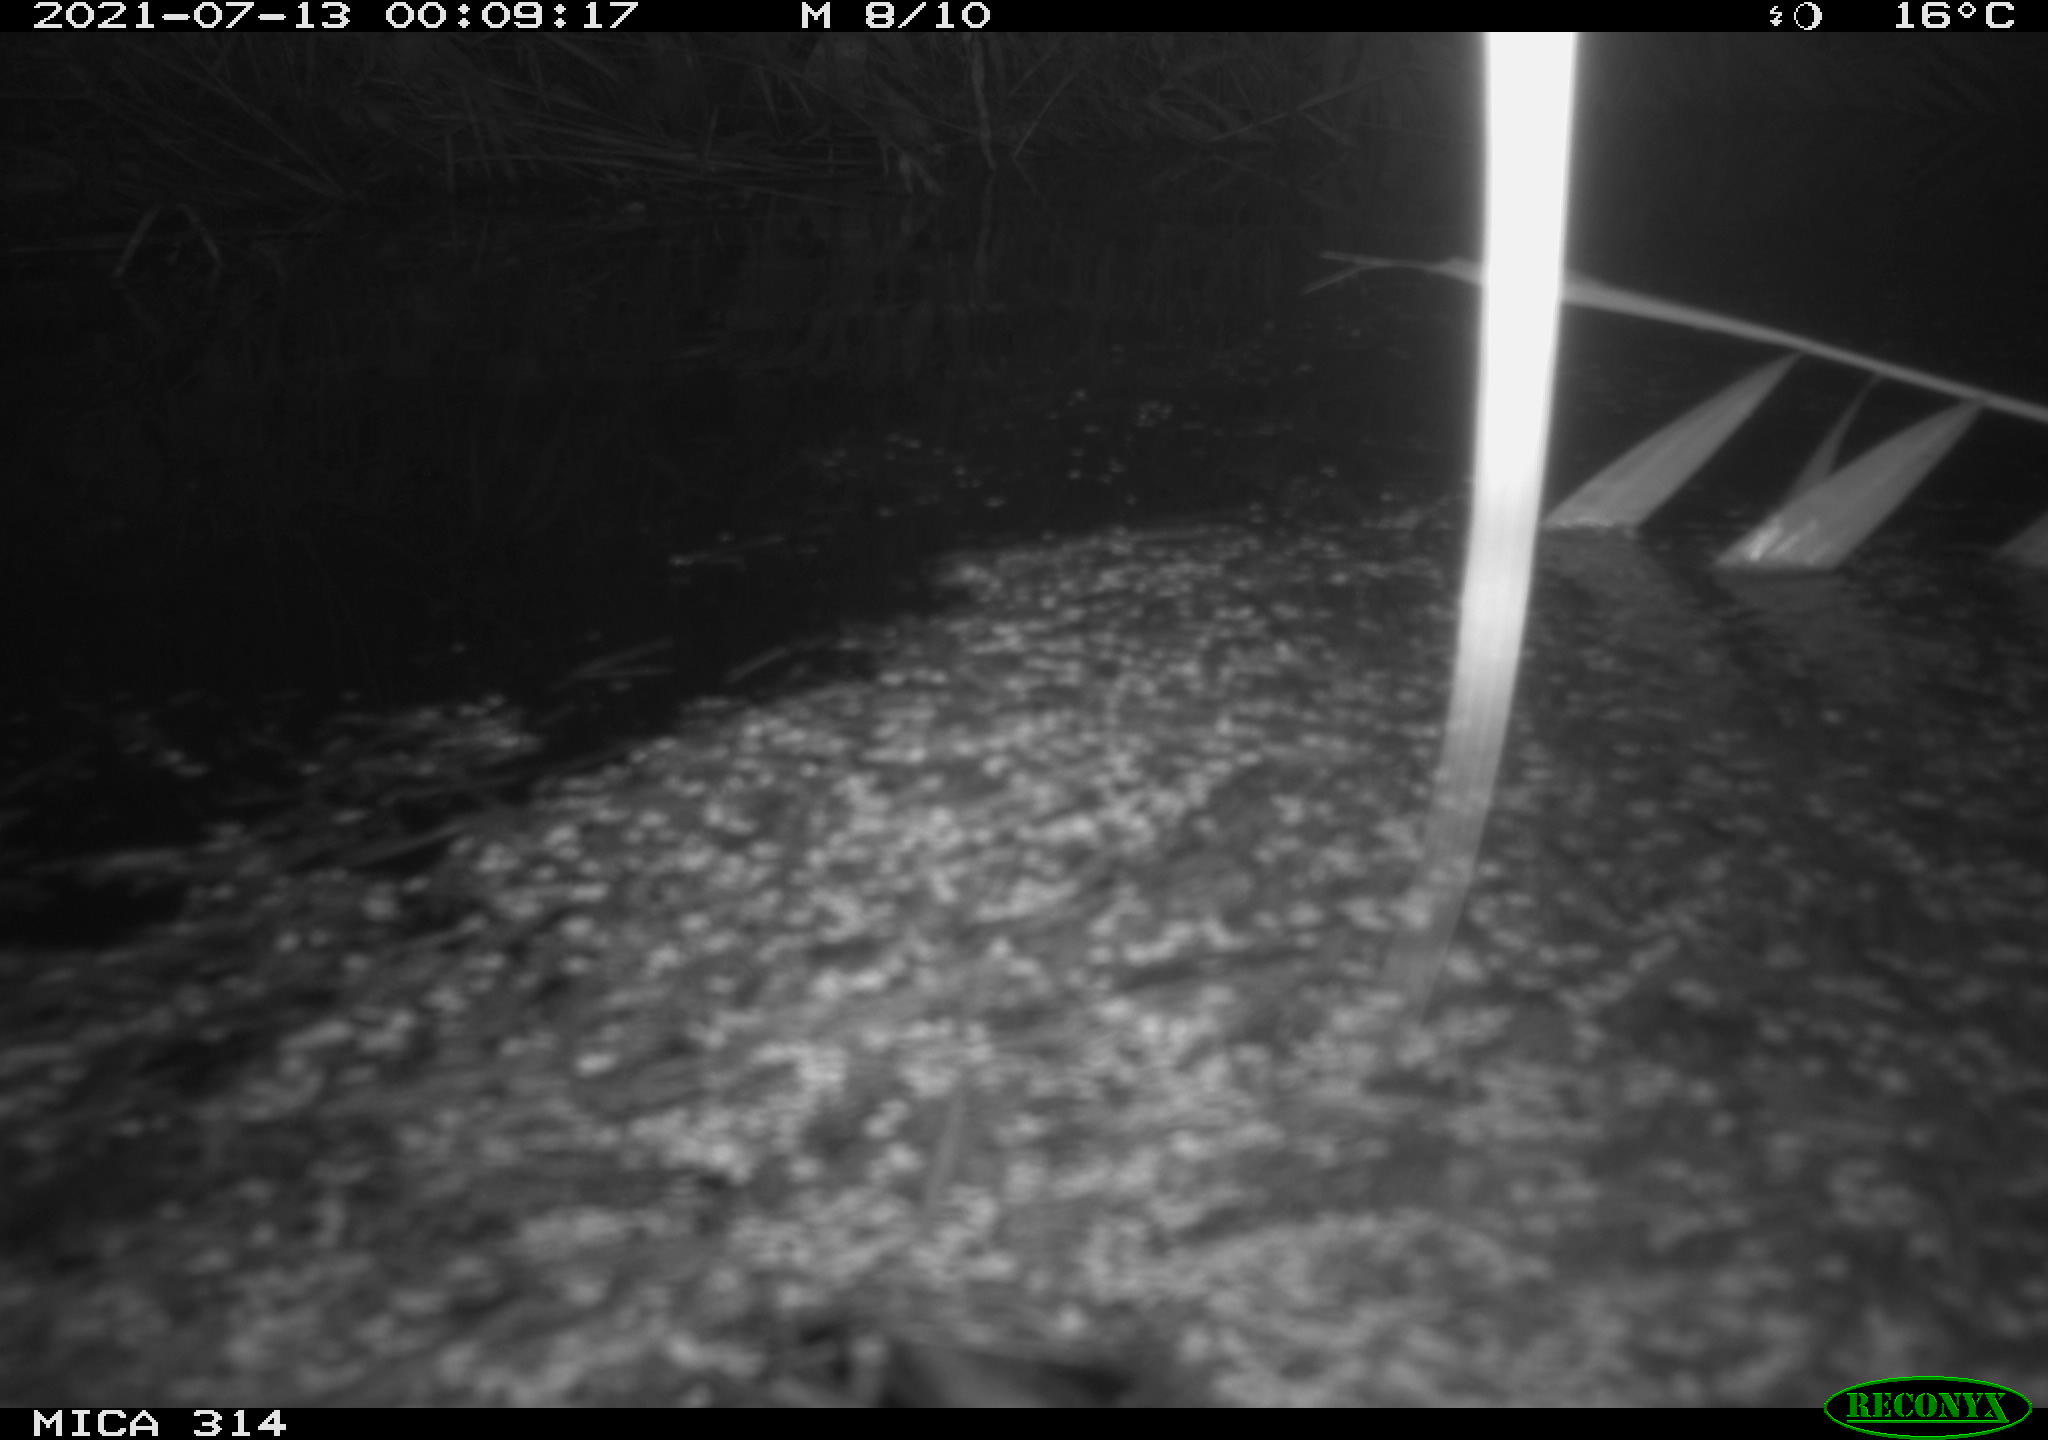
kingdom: Animalia
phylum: Chordata
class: Mammalia
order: Rodentia
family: Muridae
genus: Rattus
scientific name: Rattus norvegicus
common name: Brown rat
